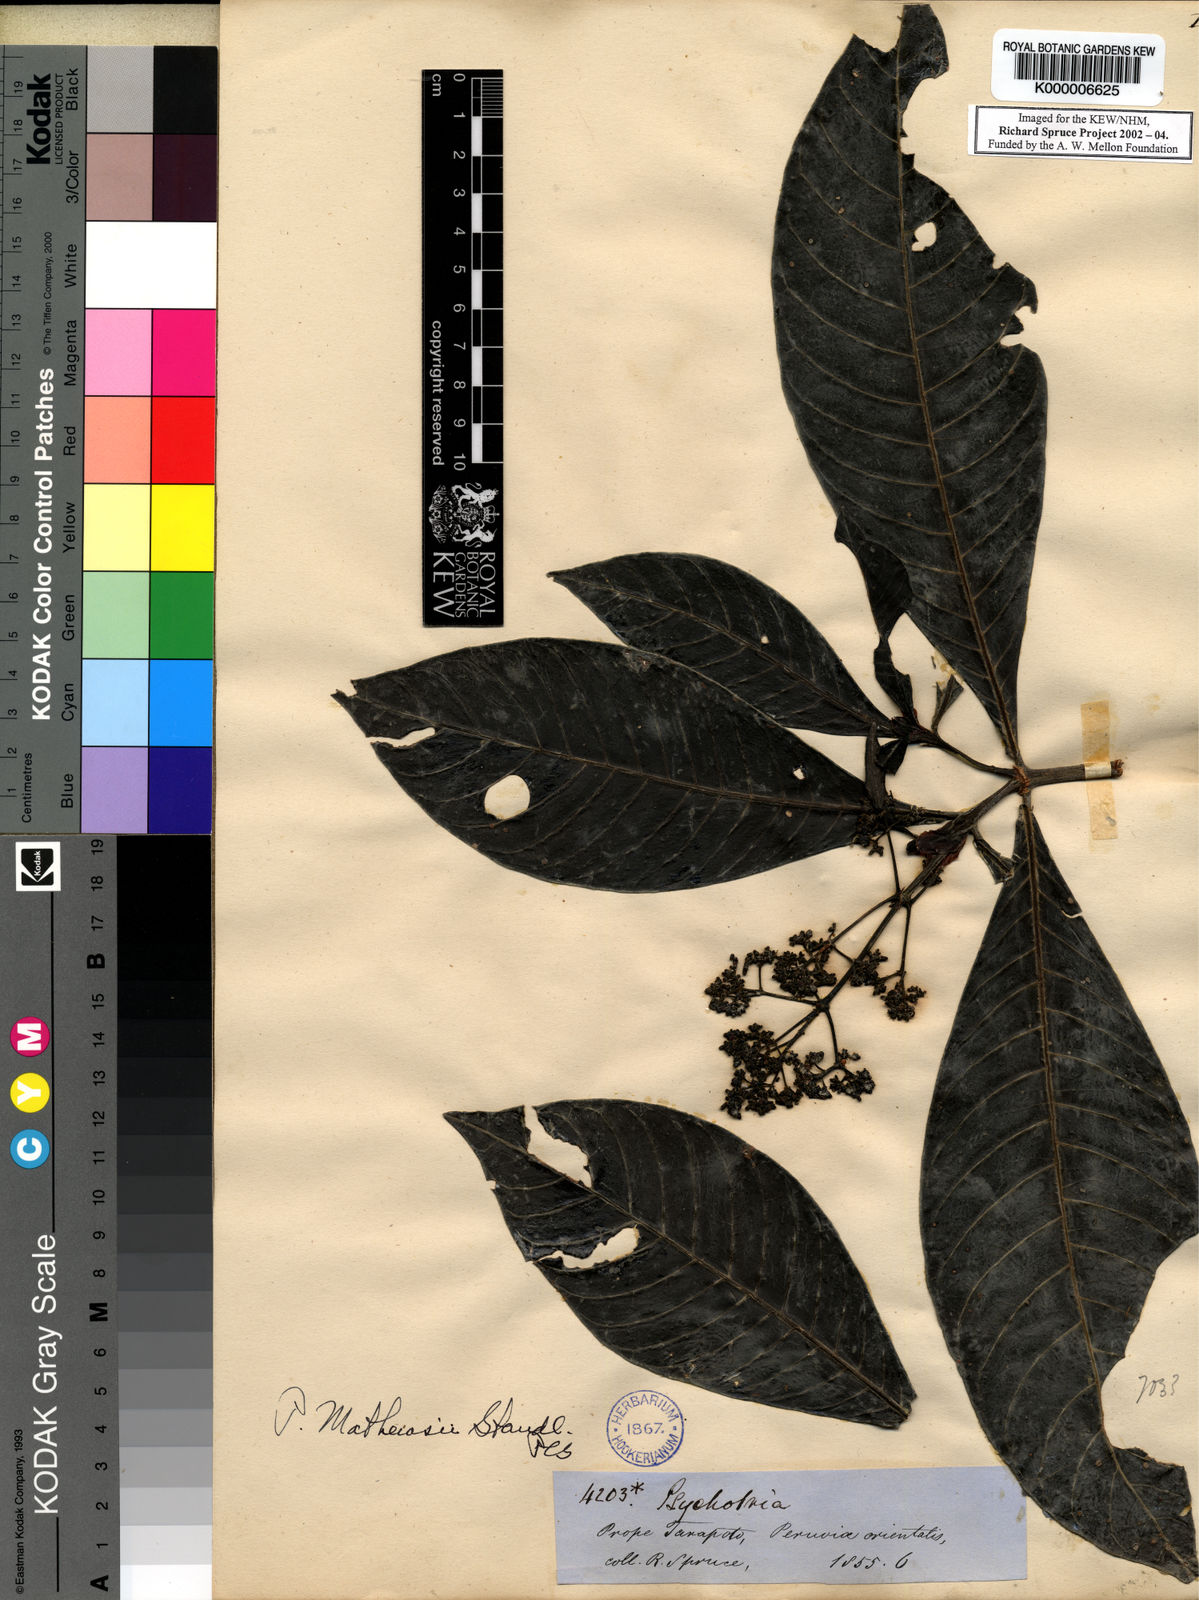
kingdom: Plantae
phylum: Tracheophyta
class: Magnoliopsida
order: Gentianales
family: Rubiaceae
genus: Psychotria
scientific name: Psychotria guianensis
